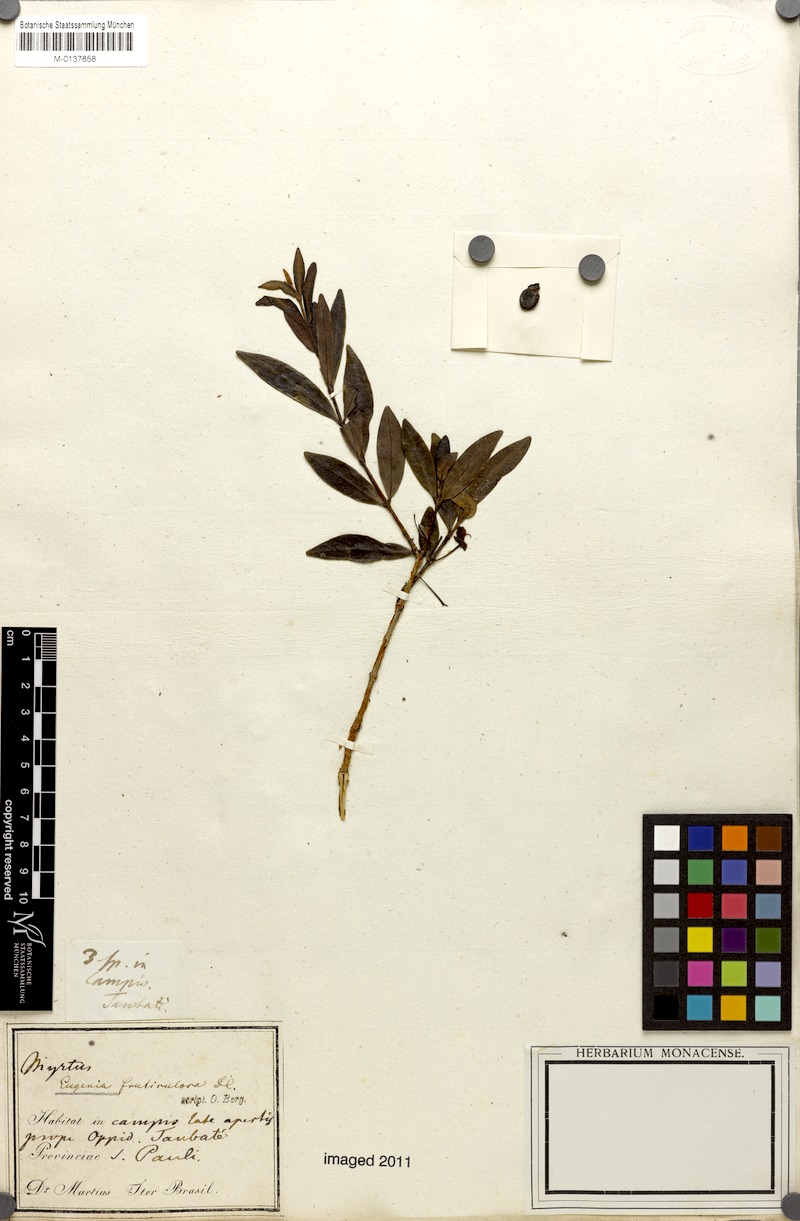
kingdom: Plantae
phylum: Tracheophyta
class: Magnoliopsida
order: Myrtales
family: Myrtaceae
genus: Eugenia
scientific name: Eugenia punicifolia
